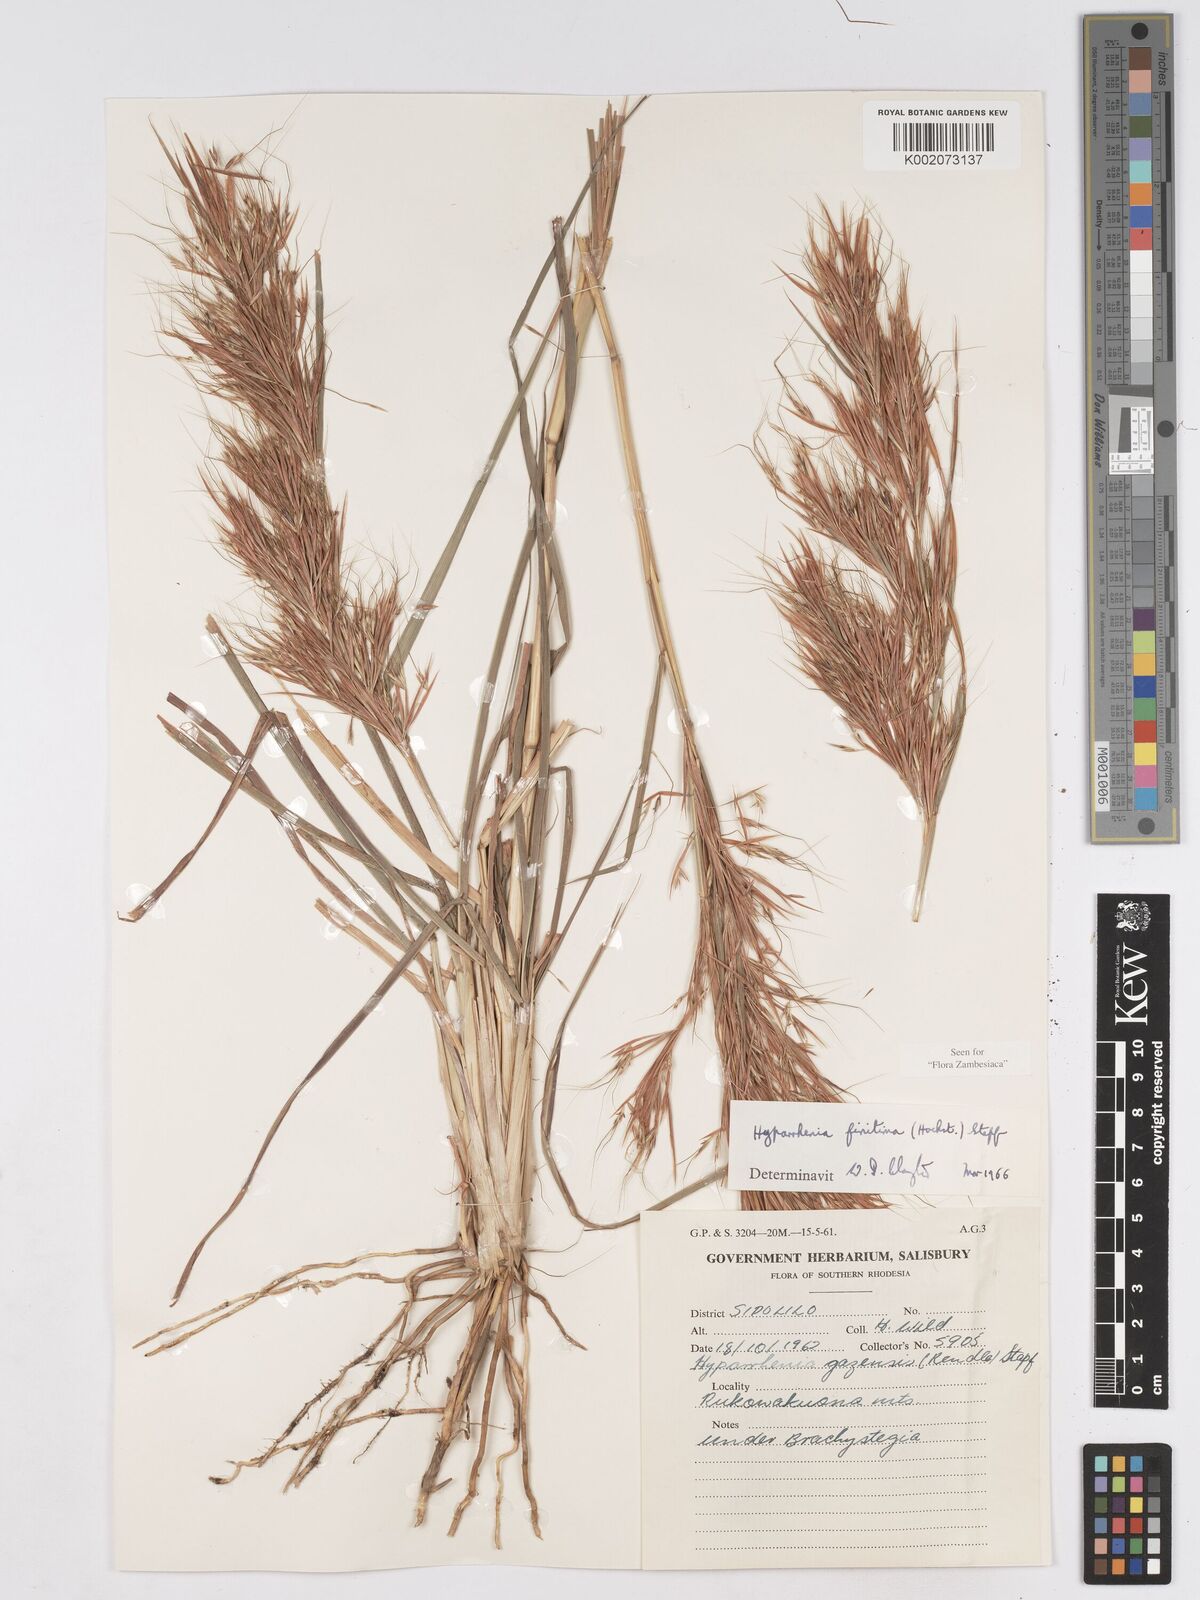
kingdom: Plantae
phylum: Tracheophyta
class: Liliopsida
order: Poales
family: Poaceae
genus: Hyparrhenia
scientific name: Hyparrhenia finitima
